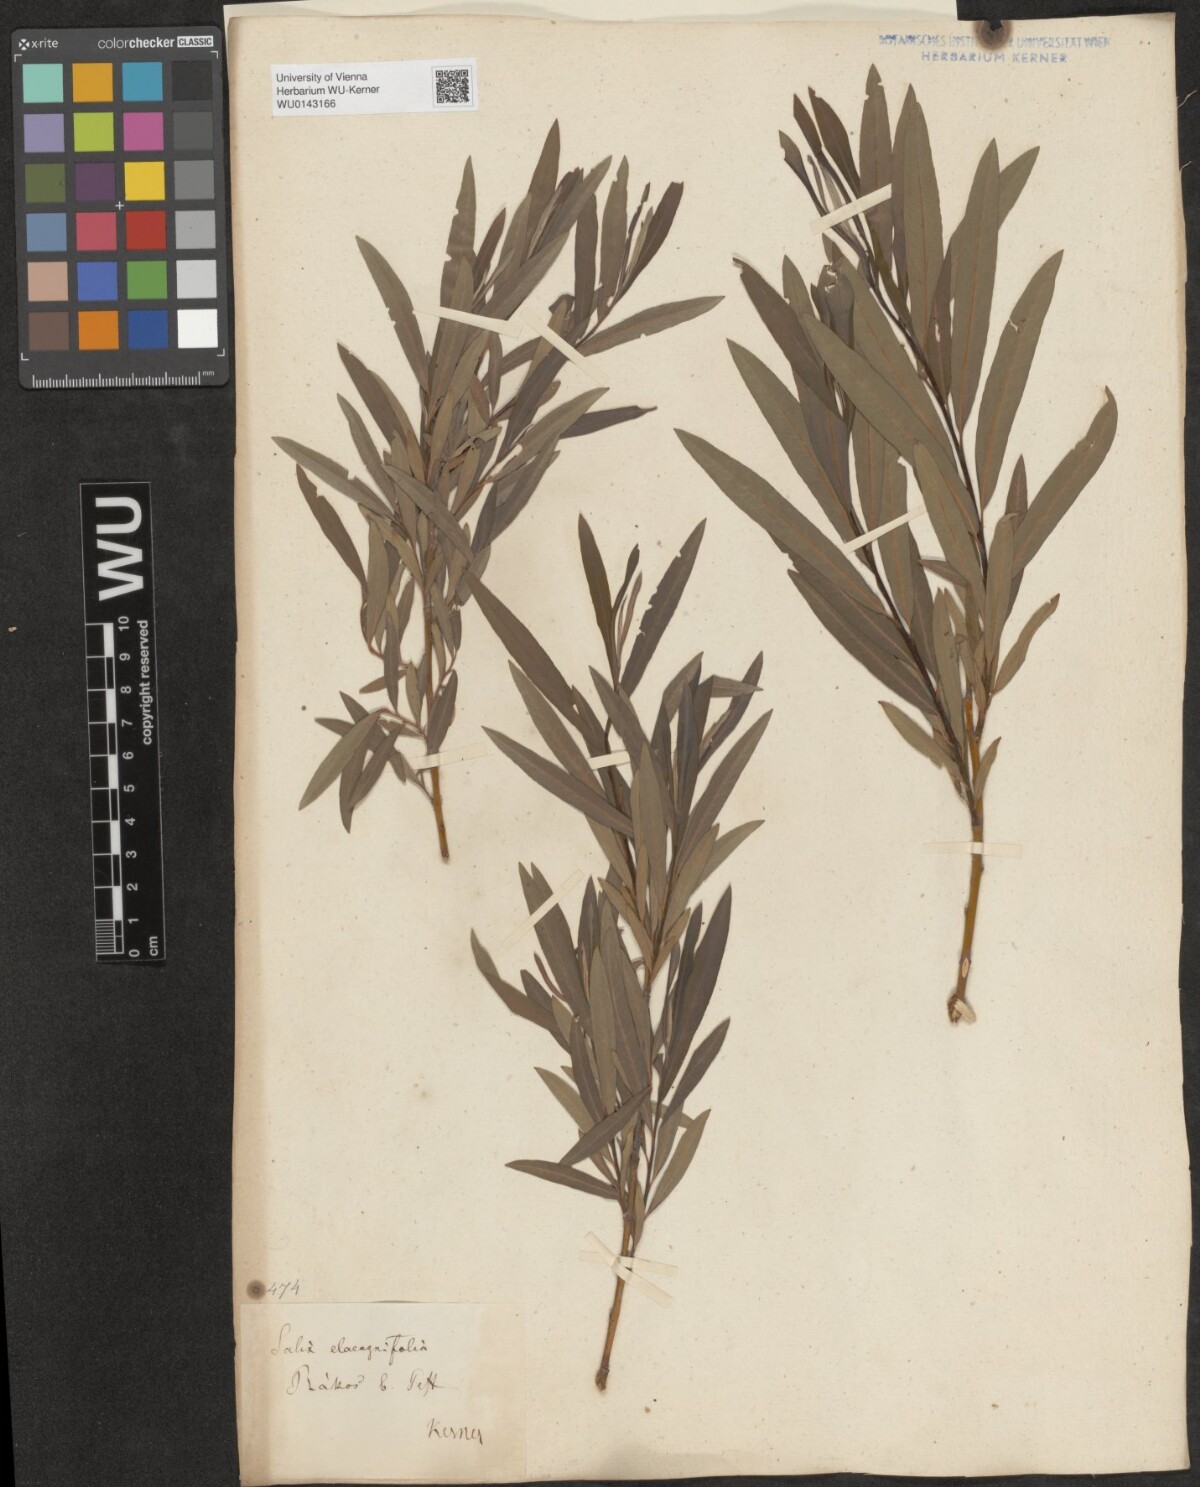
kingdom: Plantae
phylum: Tracheophyta
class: Magnoliopsida
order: Malpighiales
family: Salicaceae
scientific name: Salicaceae
